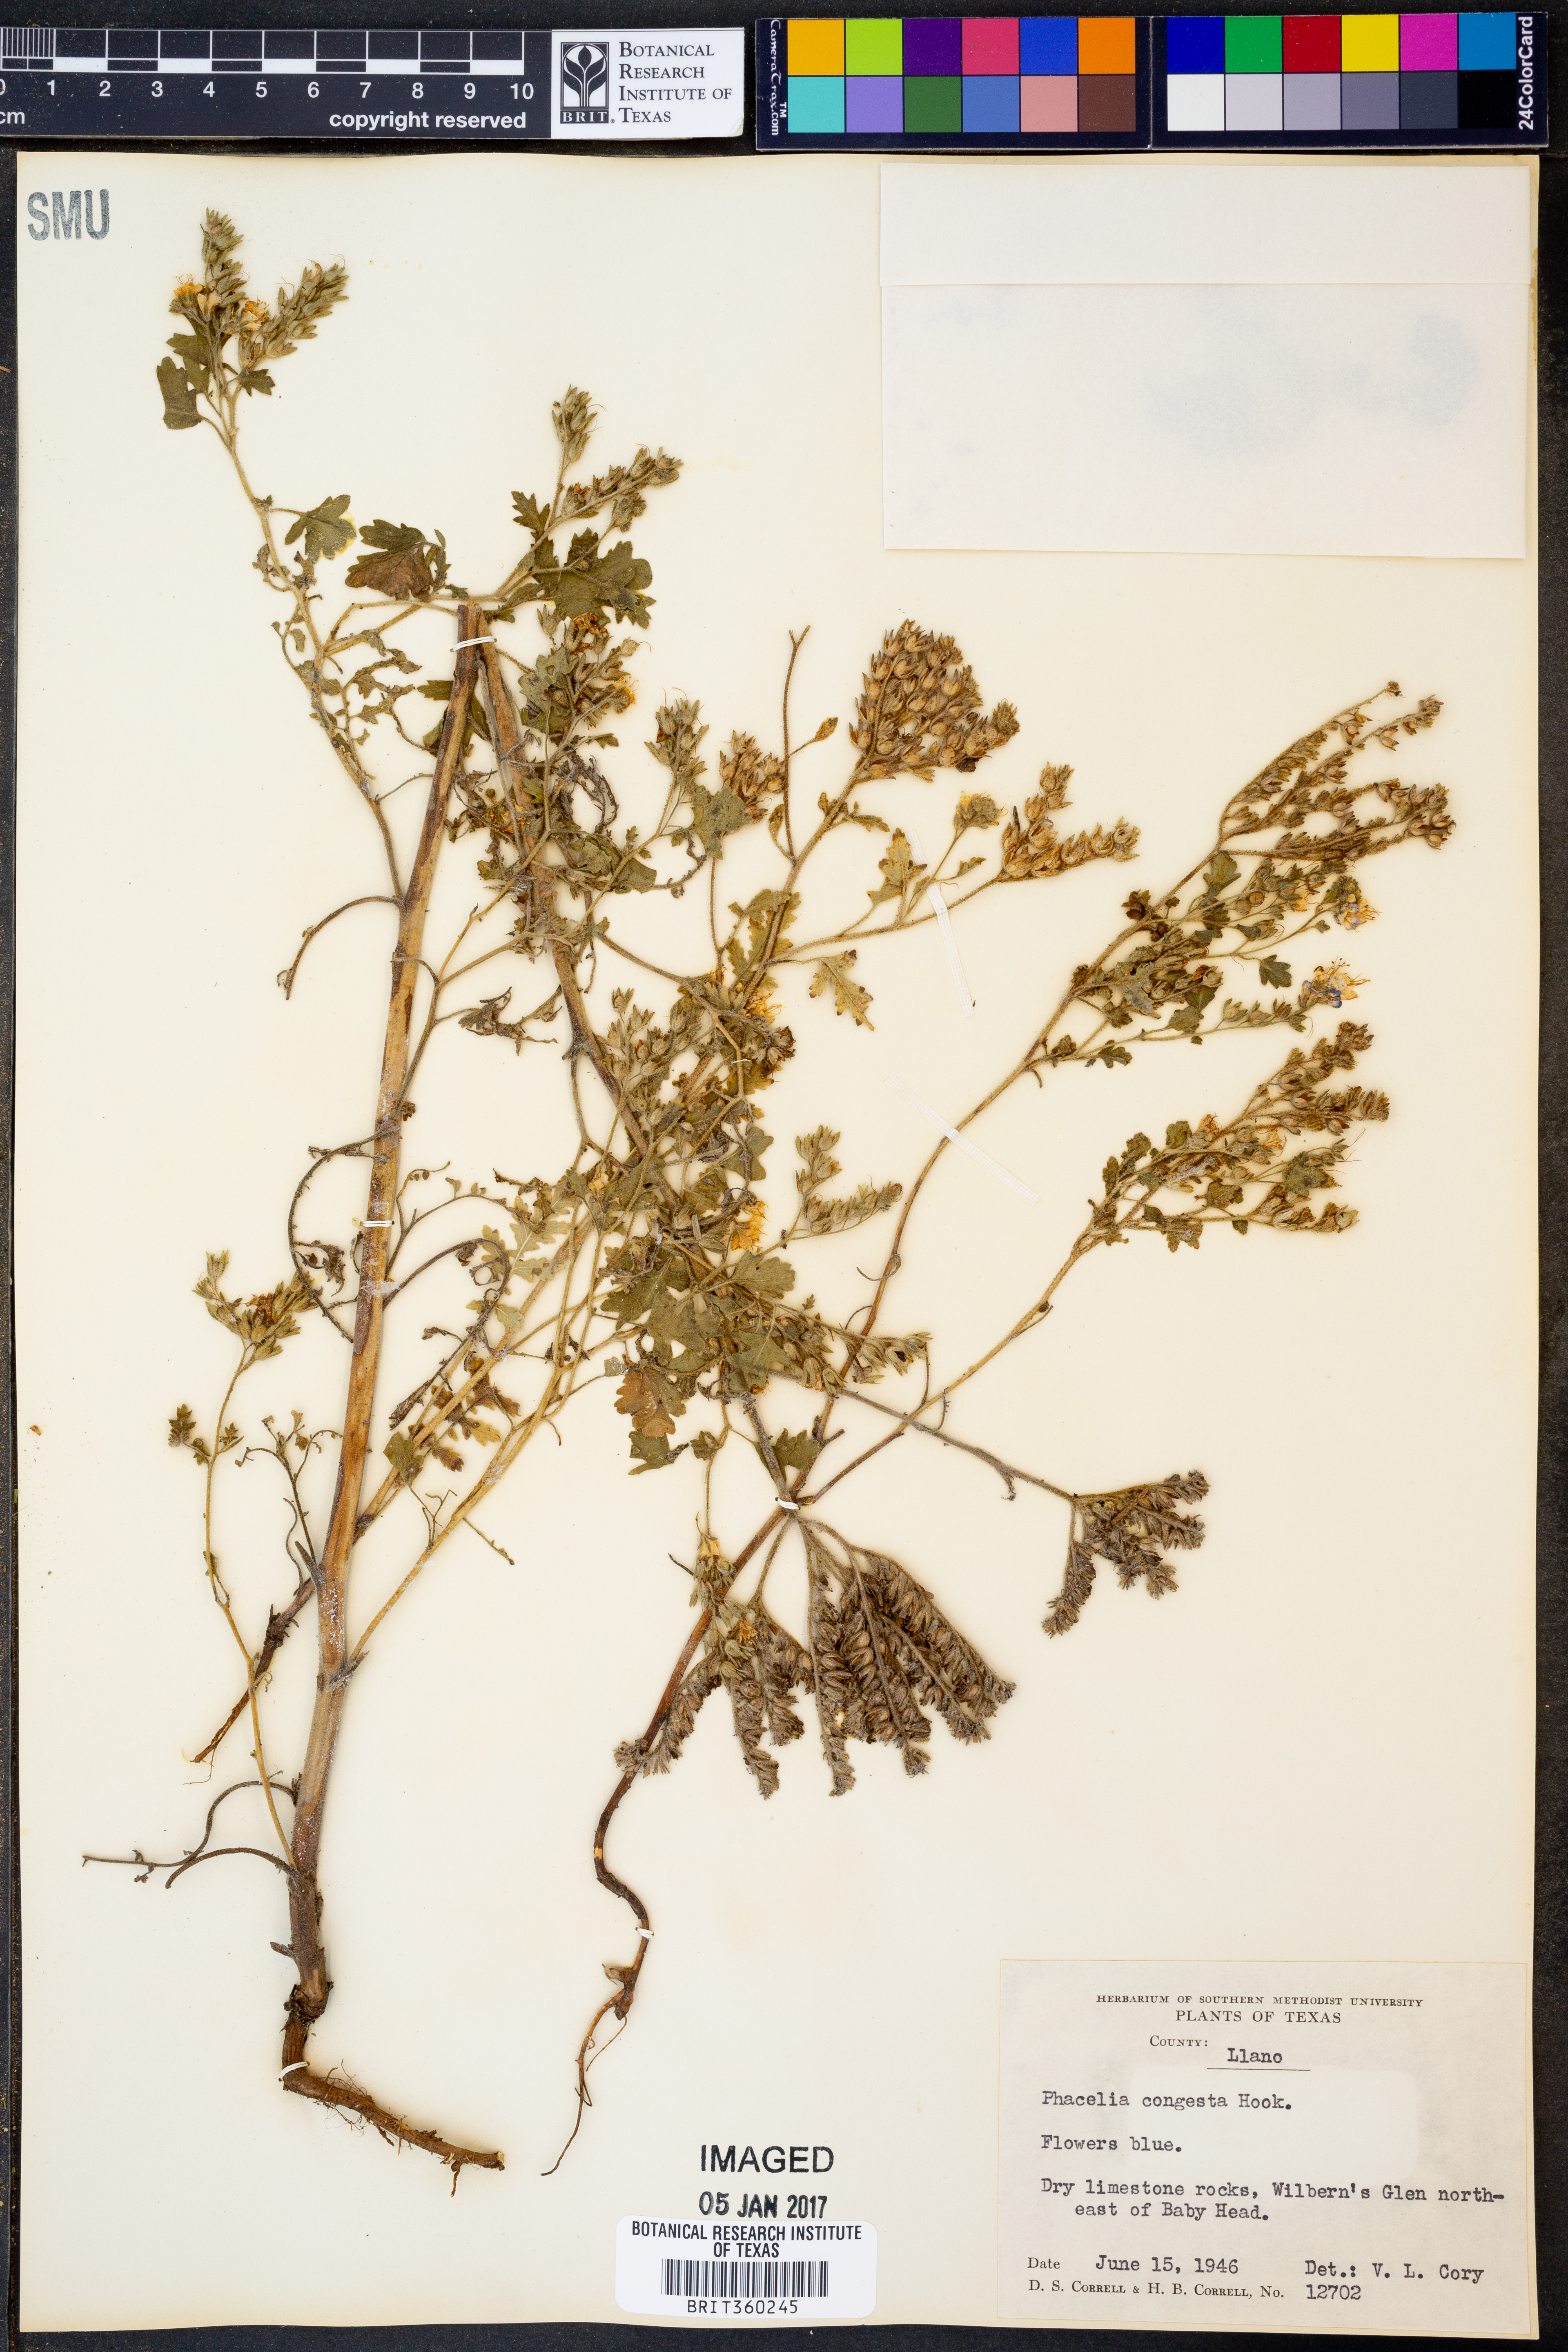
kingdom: Plantae
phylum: Tracheophyta
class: Magnoliopsida
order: Boraginales
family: Hydrophyllaceae
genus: Phacelia
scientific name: Phacelia congesta
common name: Blue curls
